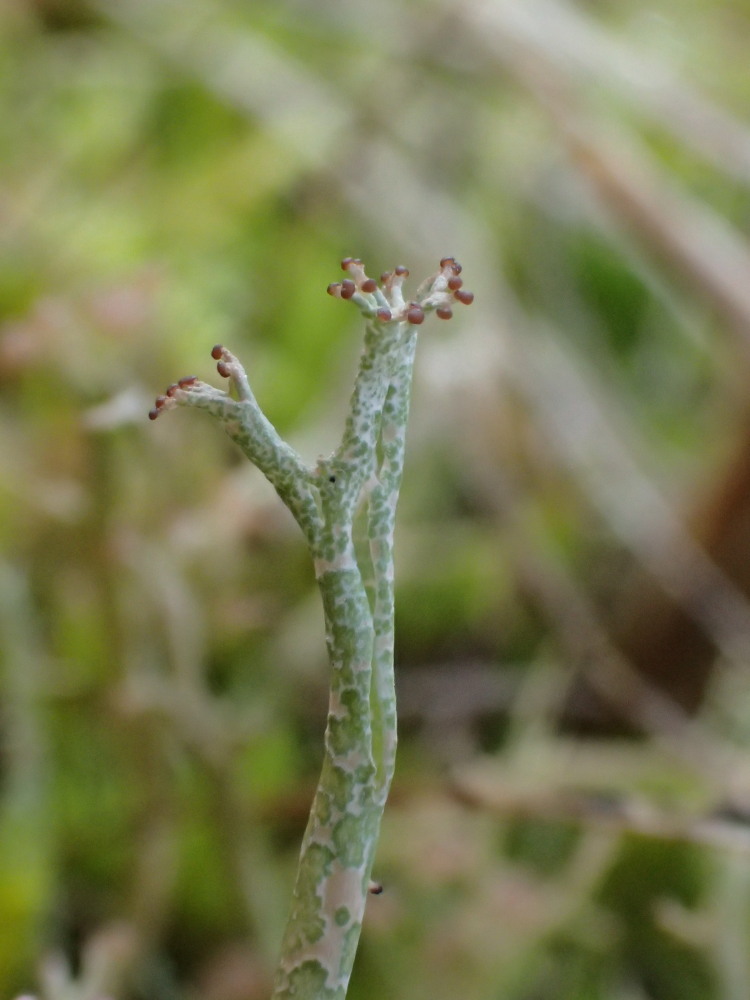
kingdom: Fungi
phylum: Ascomycota
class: Lecanoromycetes
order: Lecanorales
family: Cladoniaceae
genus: Cladonia
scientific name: Cladonia furcata
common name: kløftet bægerlav
